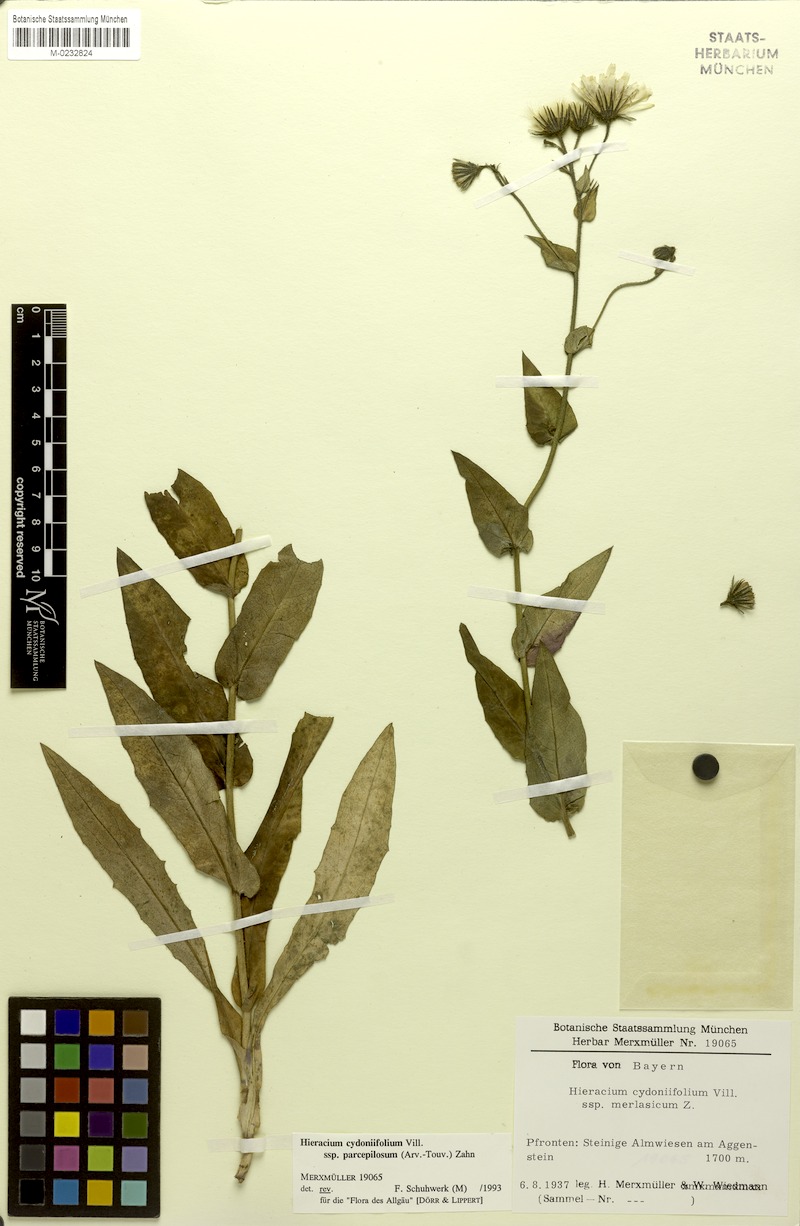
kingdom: Plantae
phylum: Tracheophyta
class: Magnoliopsida
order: Asterales
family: Asteraceae
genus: Hieracium
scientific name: Hieracium cydoniifolium
